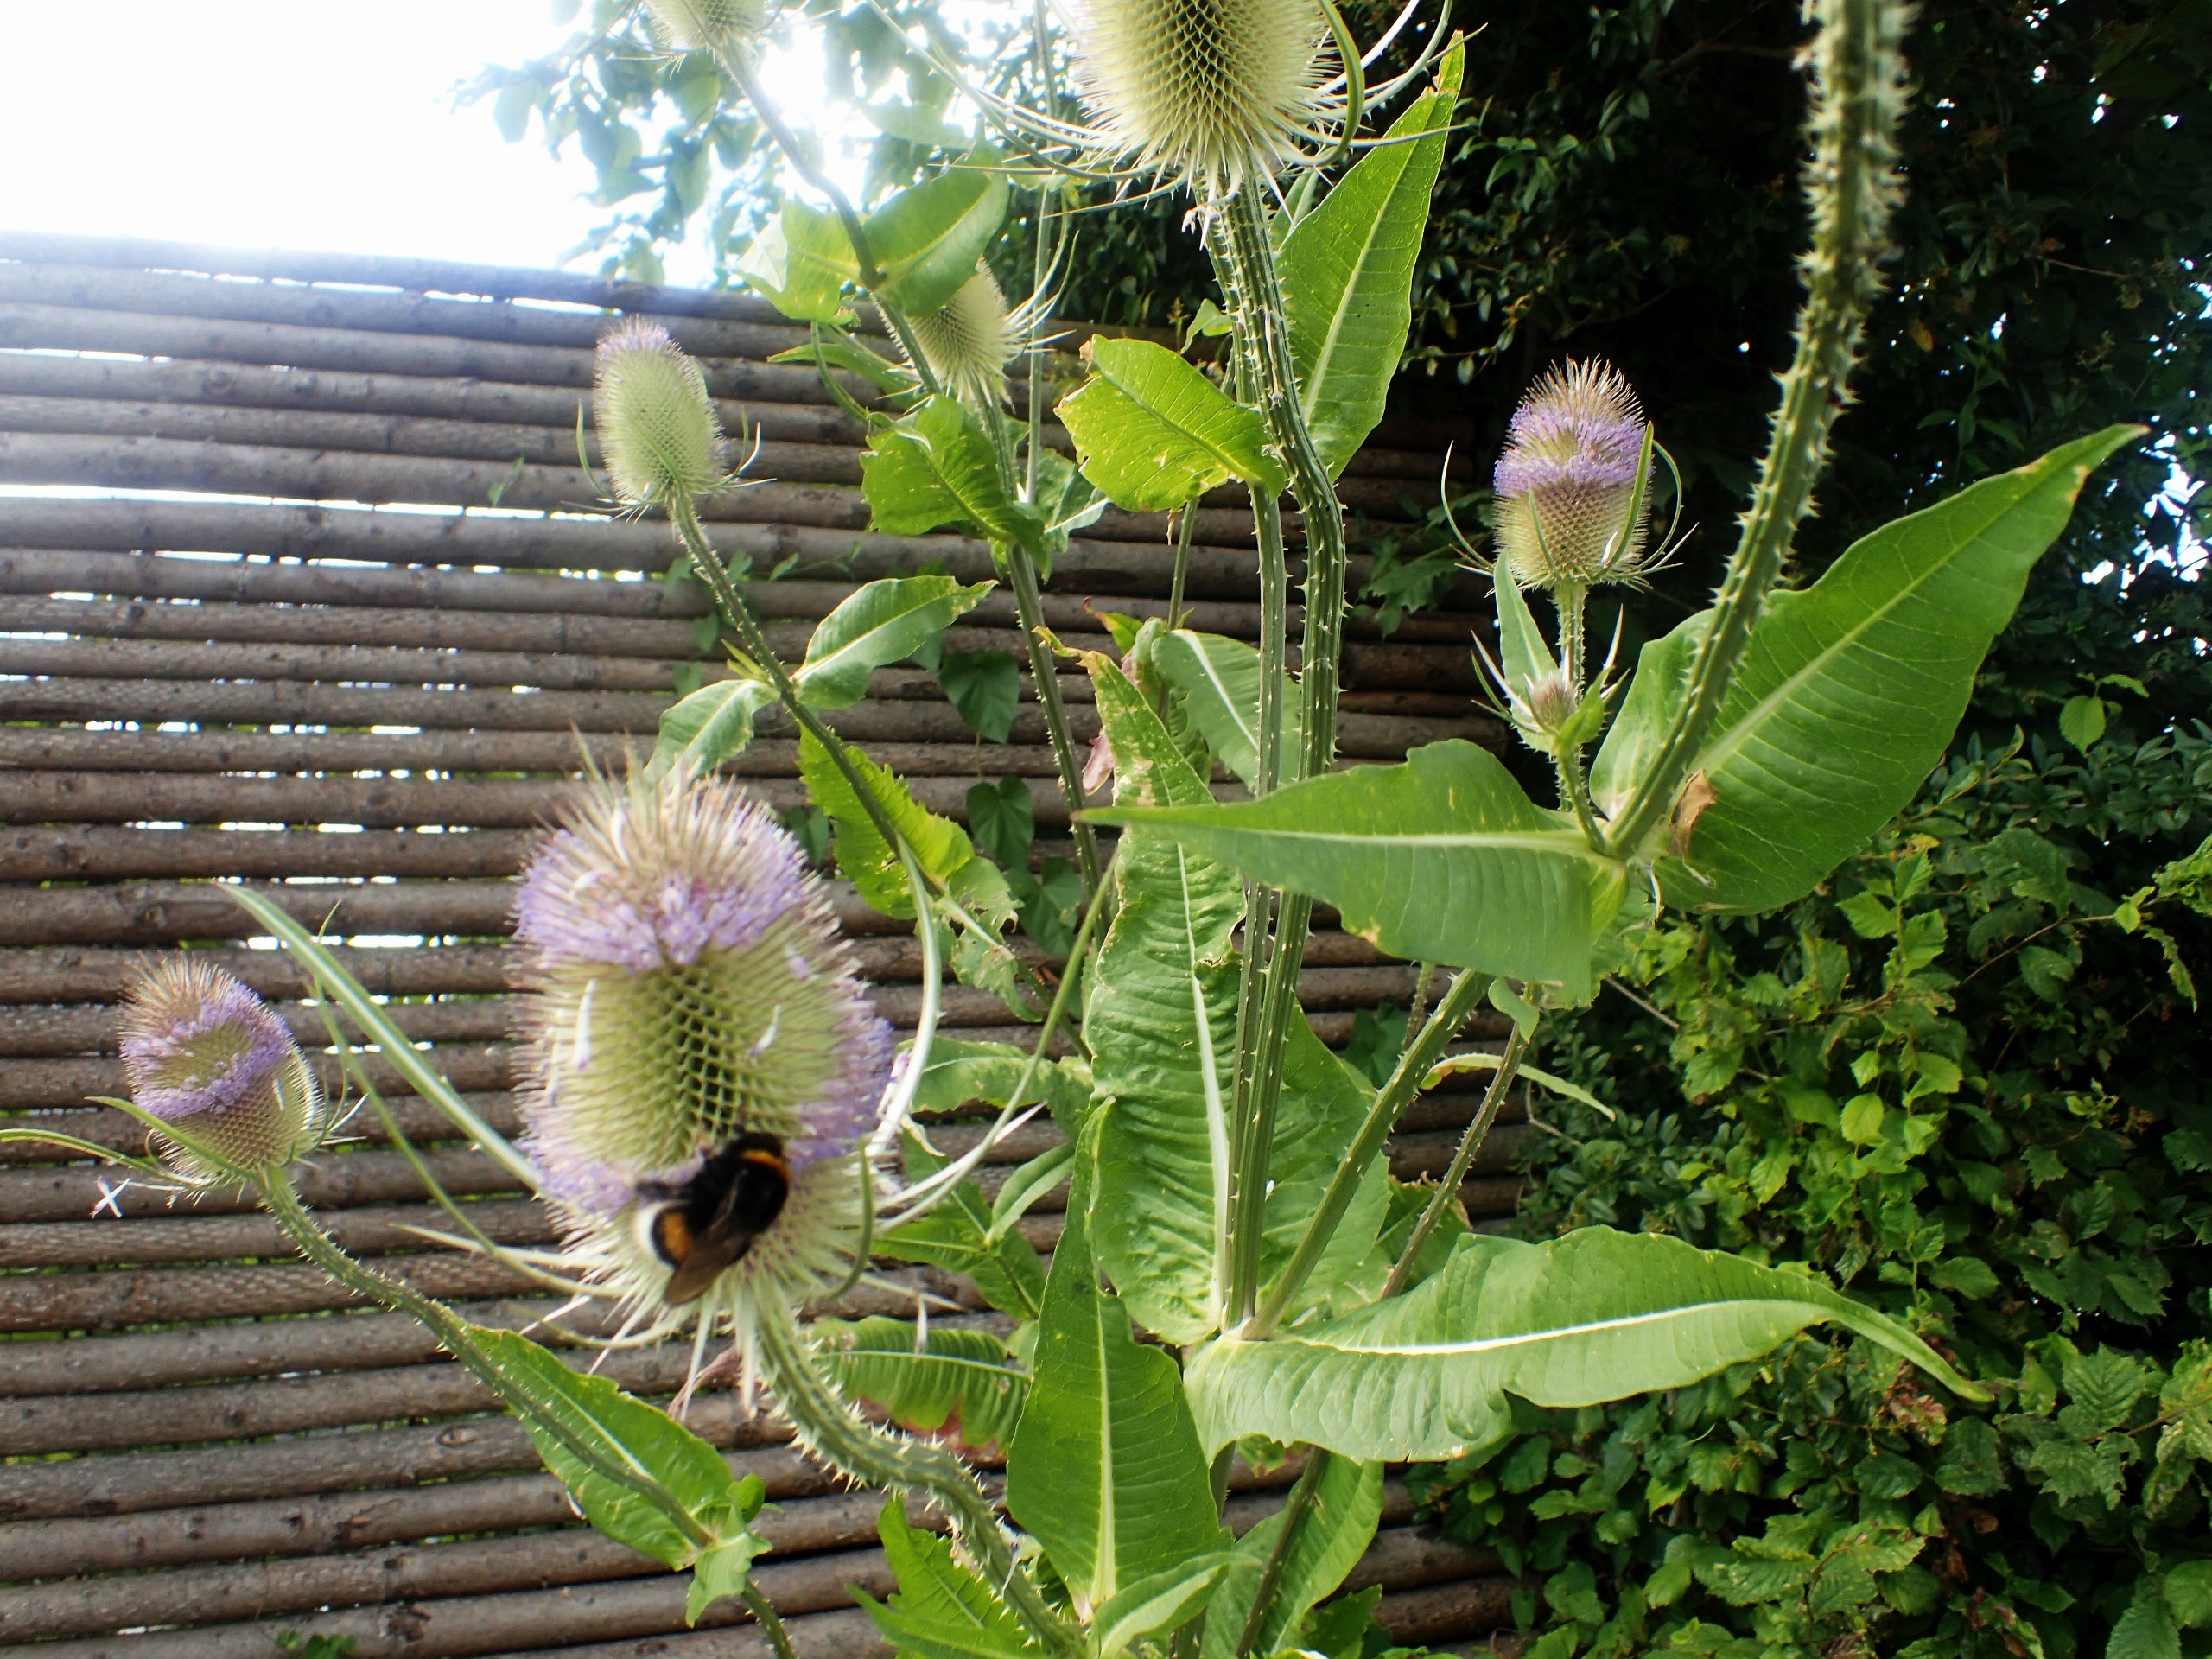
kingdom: Plantae
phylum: Tracheophyta
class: Magnoliopsida
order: Dipsacales
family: Caprifoliaceae
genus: Dipsacus
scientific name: Dipsacus fullonum
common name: Gærde-kartebolle
